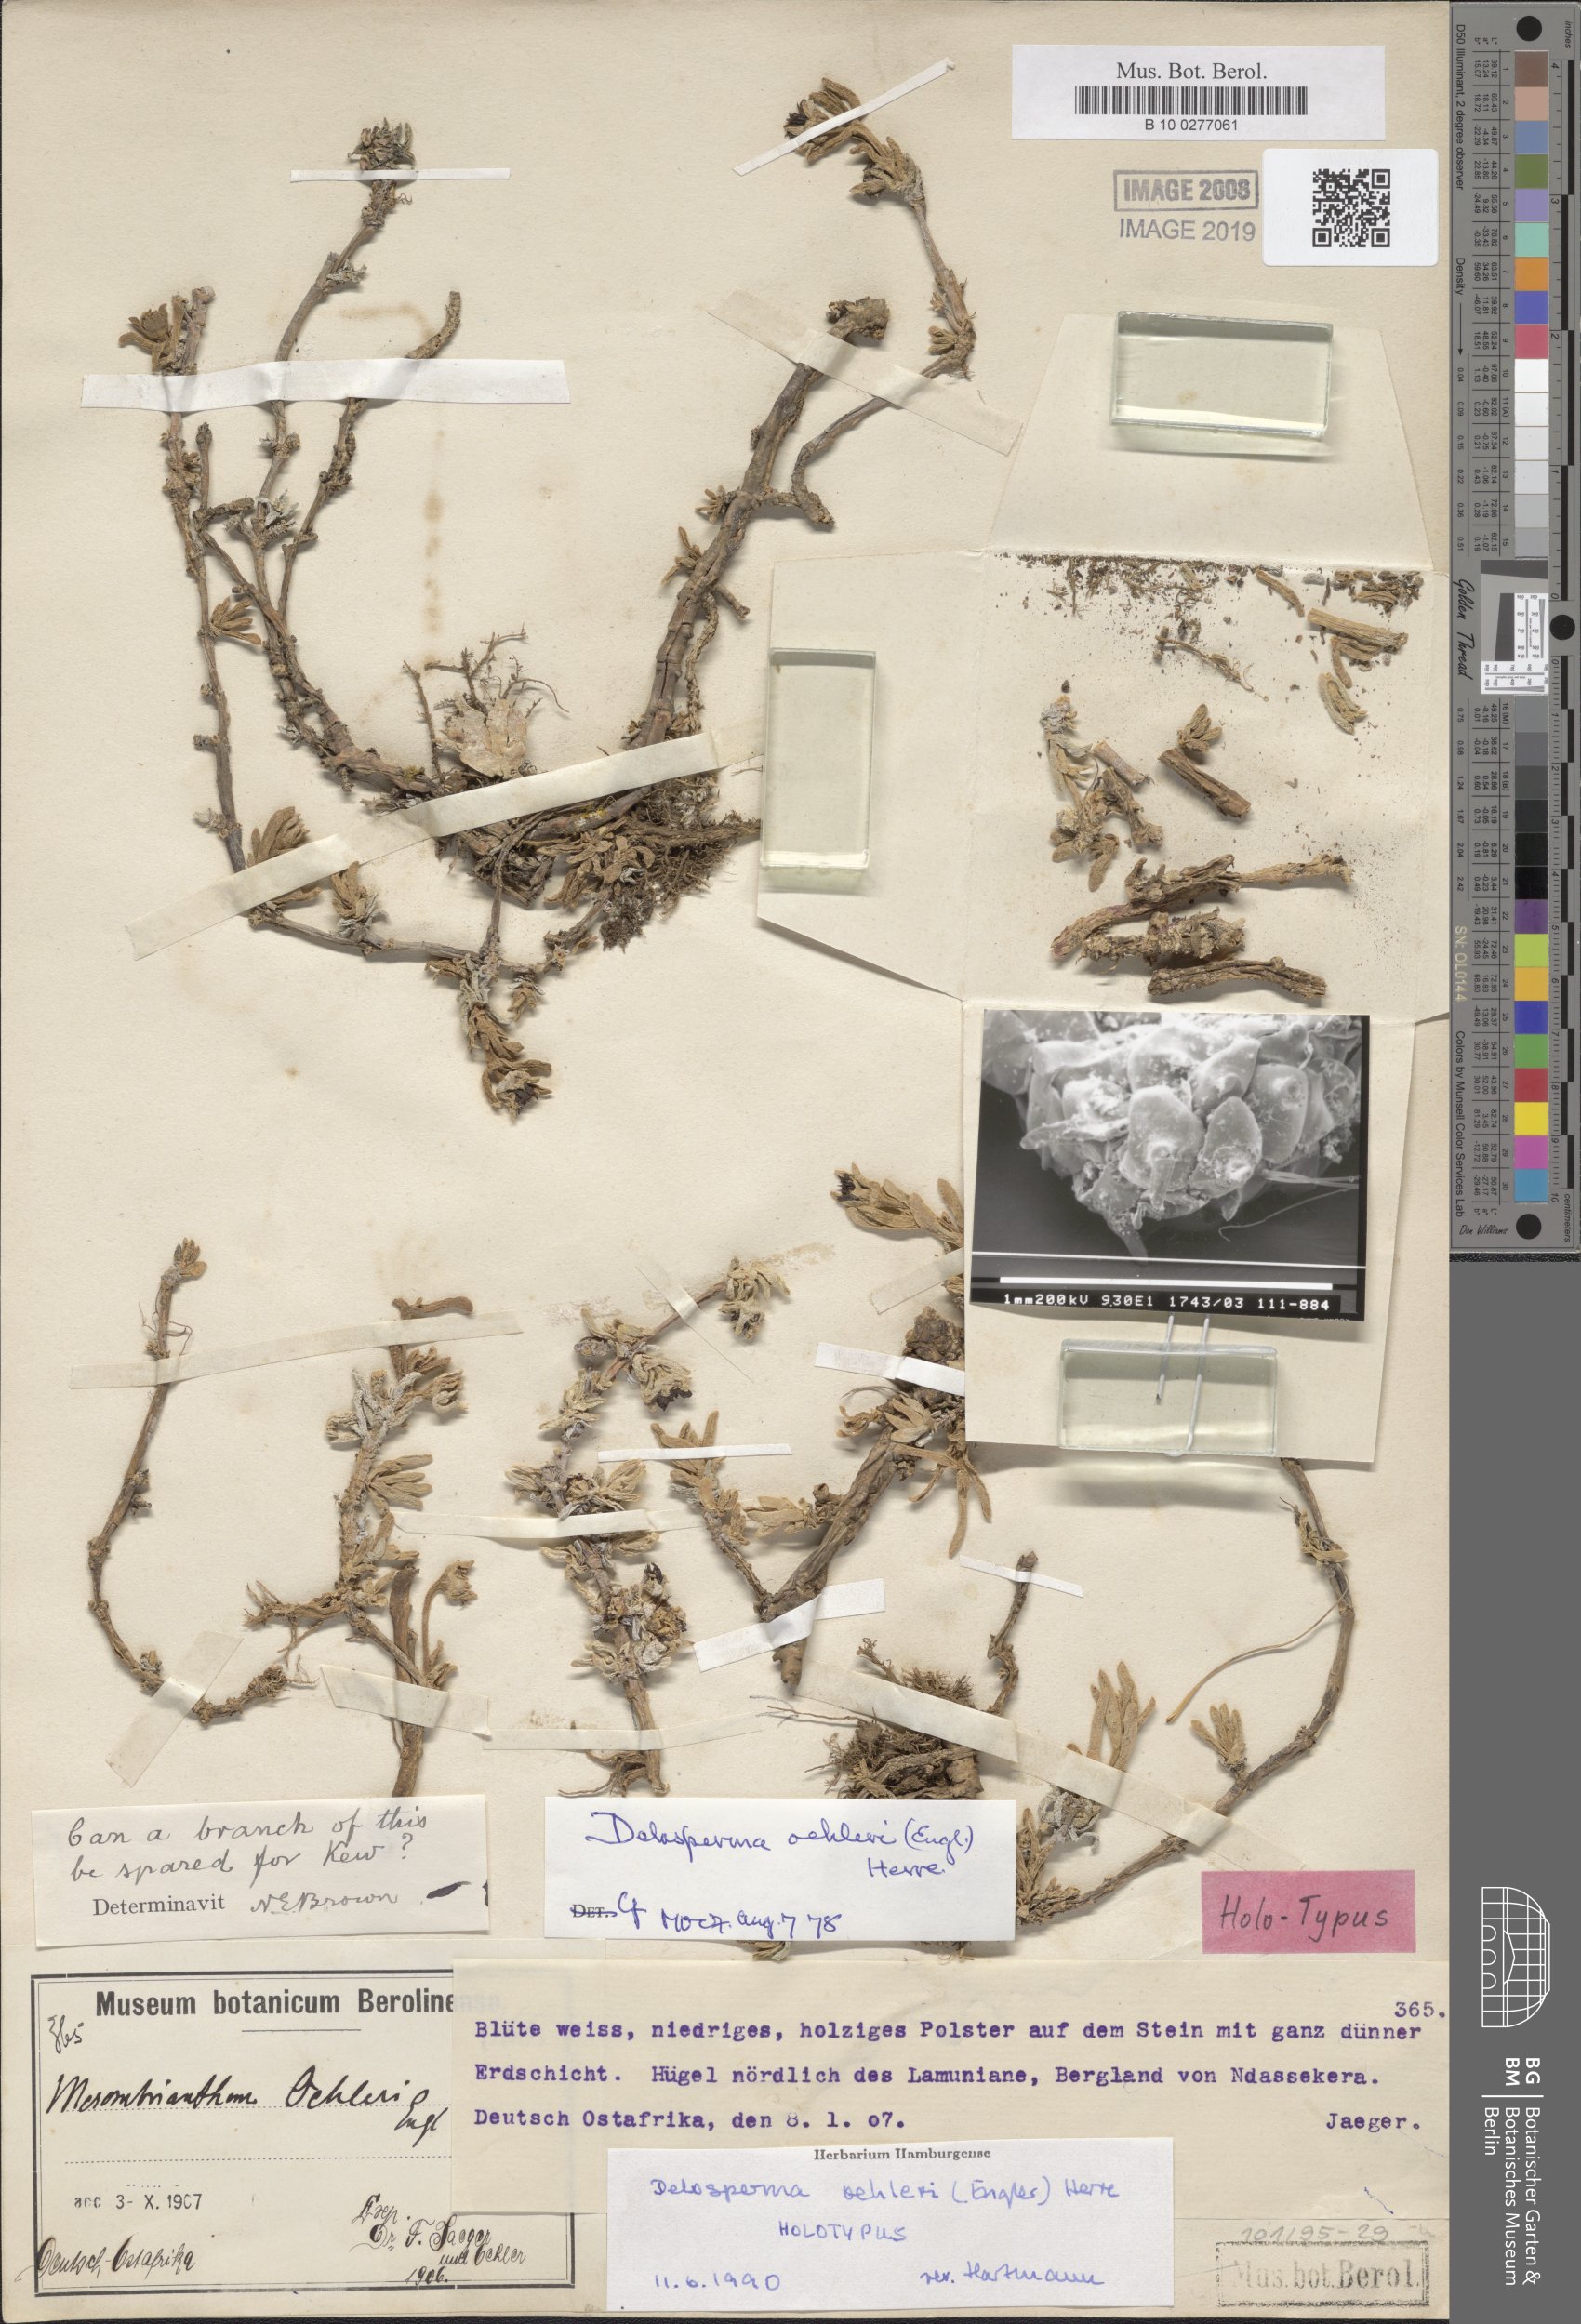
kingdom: Plantae
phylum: Tracheophyta
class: Magnoliopsida
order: Caryophyllales
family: Aizoaceae
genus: Delosperma
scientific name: Delosperma oehleri
